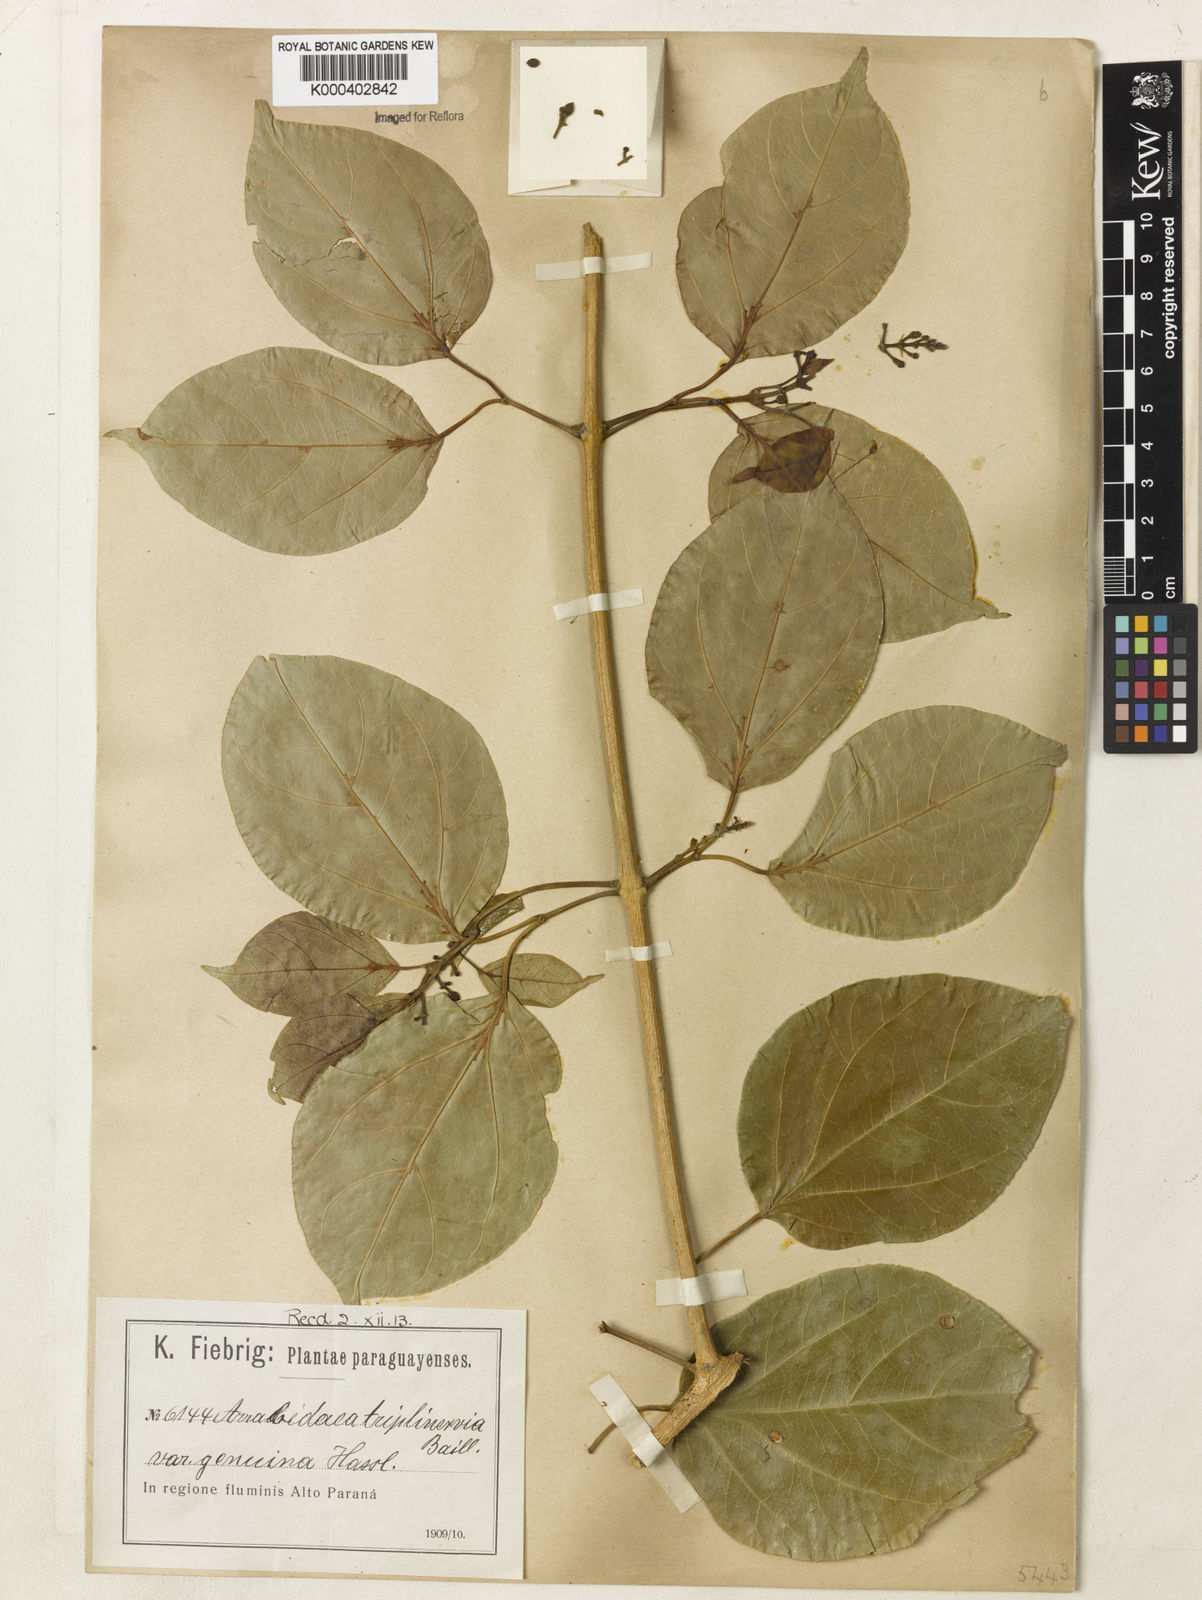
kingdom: Plantae
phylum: Tracheophyta
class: Magnoliopsida
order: Lamiales
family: Bignoniaceae
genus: Fridericia
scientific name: Fridericia triplinervia
